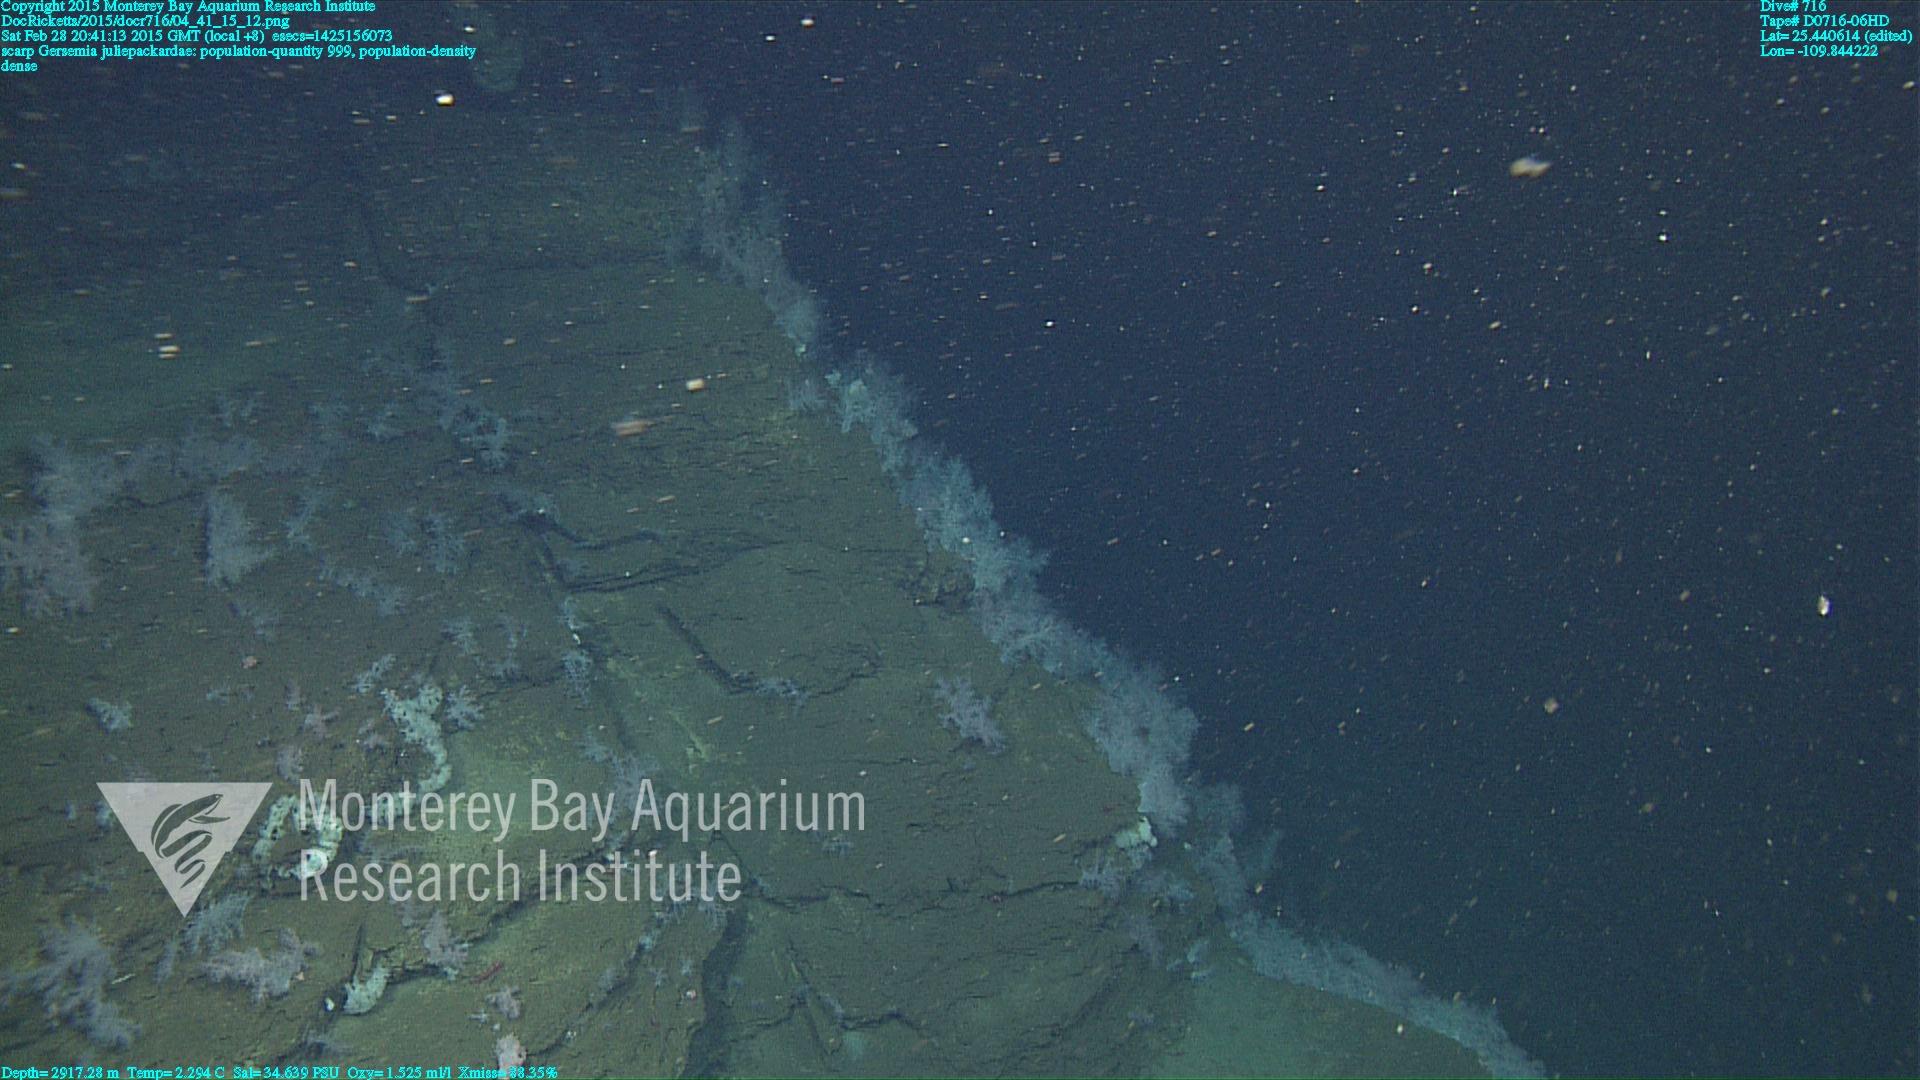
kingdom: Animalia
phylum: Cnidaria
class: Anthozoa
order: Malacalcyonacea
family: Alcyoniidae
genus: Gersemia
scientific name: Gersemia juliepackardae
